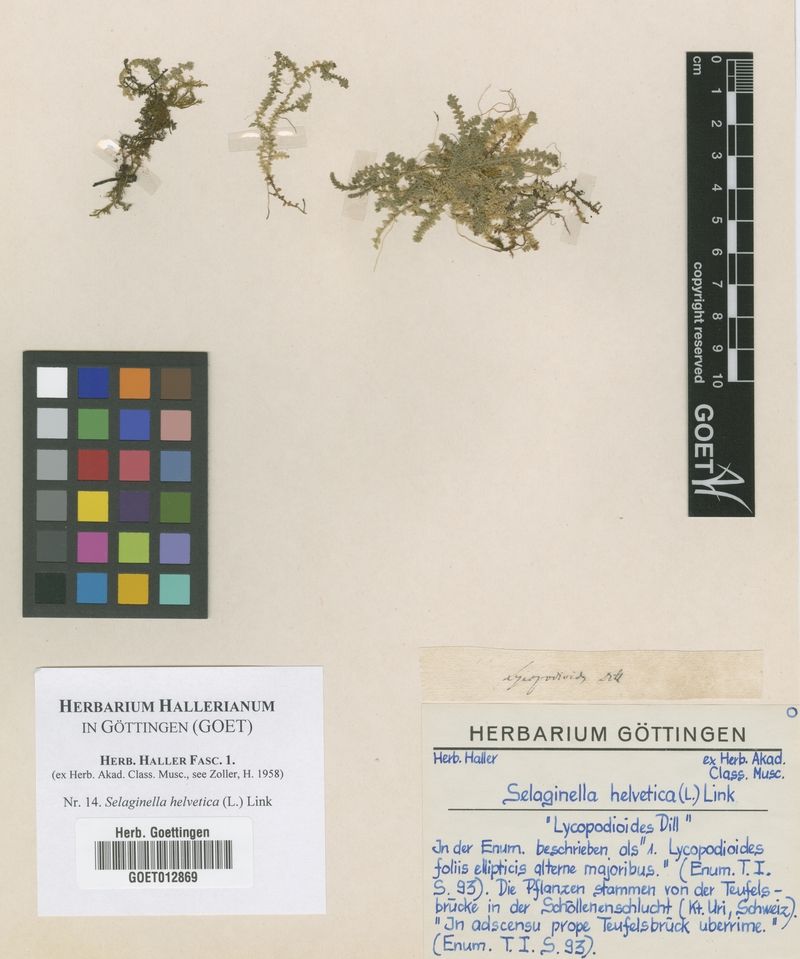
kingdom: Plantae
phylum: Tracheophyta
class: Lycopodiopsida
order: Selaginellales
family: Selaginellaceae
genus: Selaginella
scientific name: Selaginella helvetica
